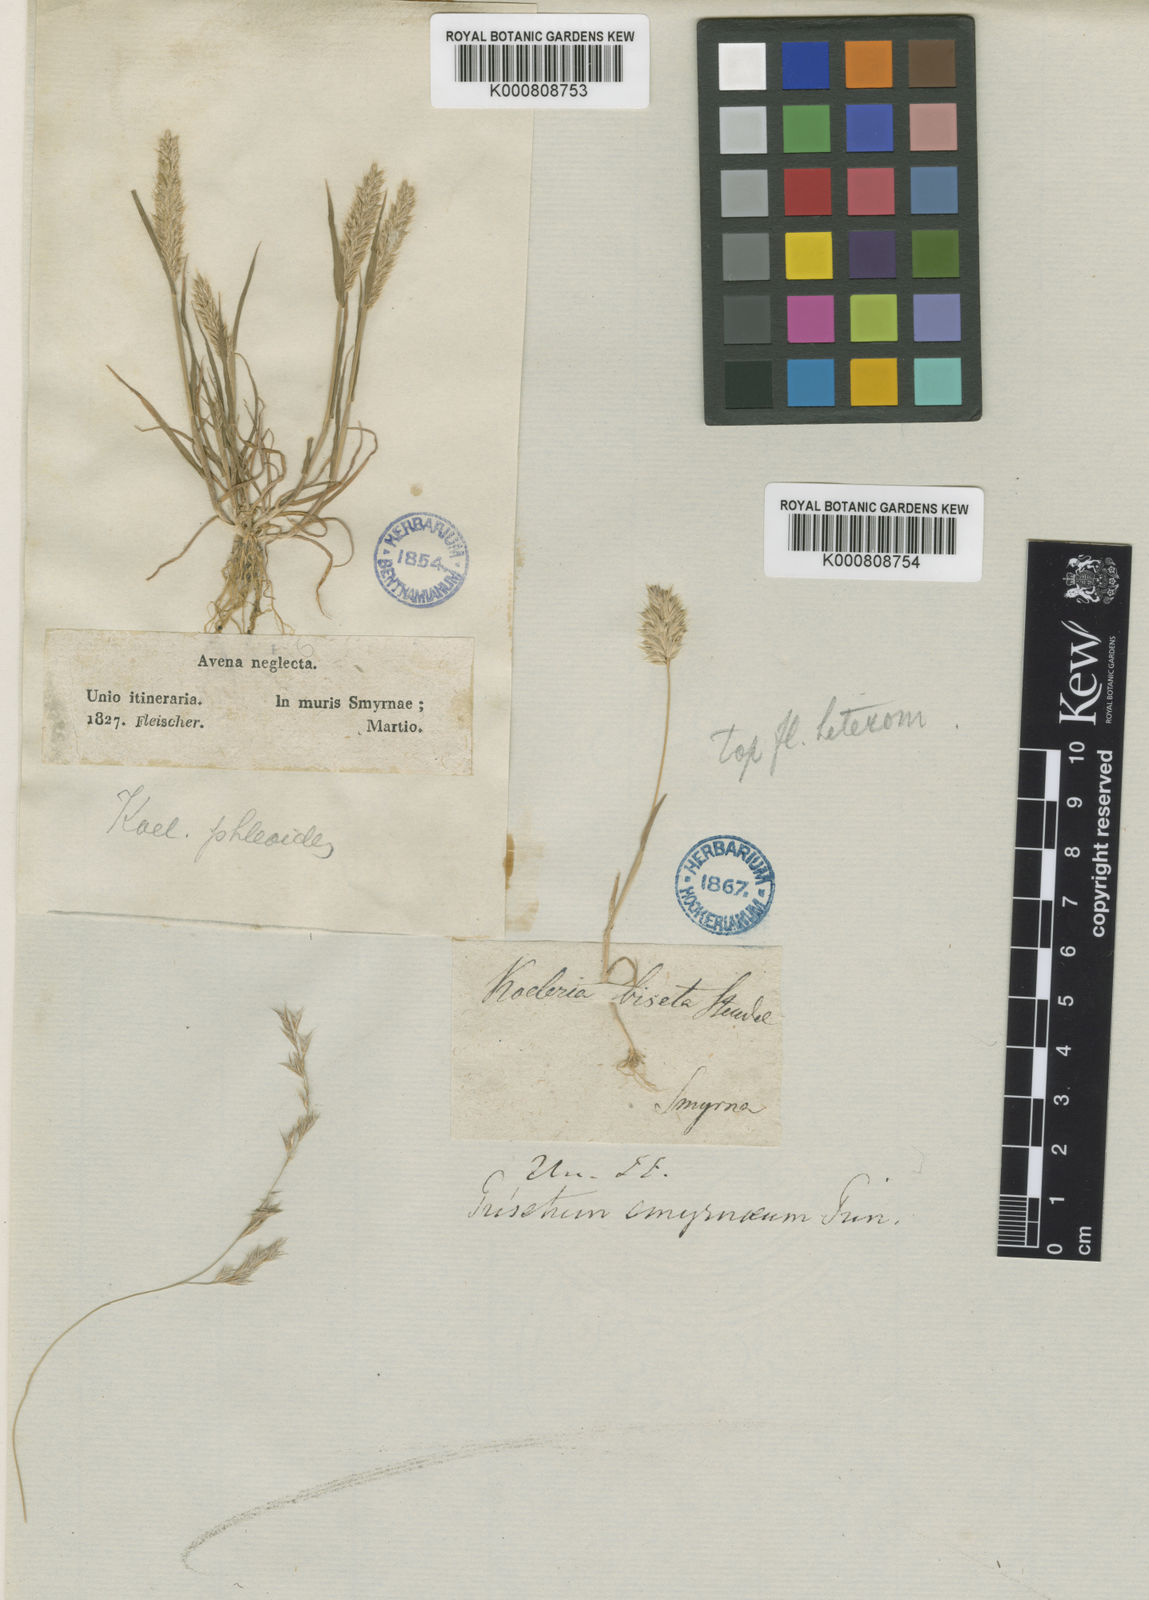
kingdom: Plantae
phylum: Tracheophyta
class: Liliopsida
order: Poales
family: Poaceae
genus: Rostraria
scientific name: Rostraria cristata
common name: Mediterranean hair-grass
